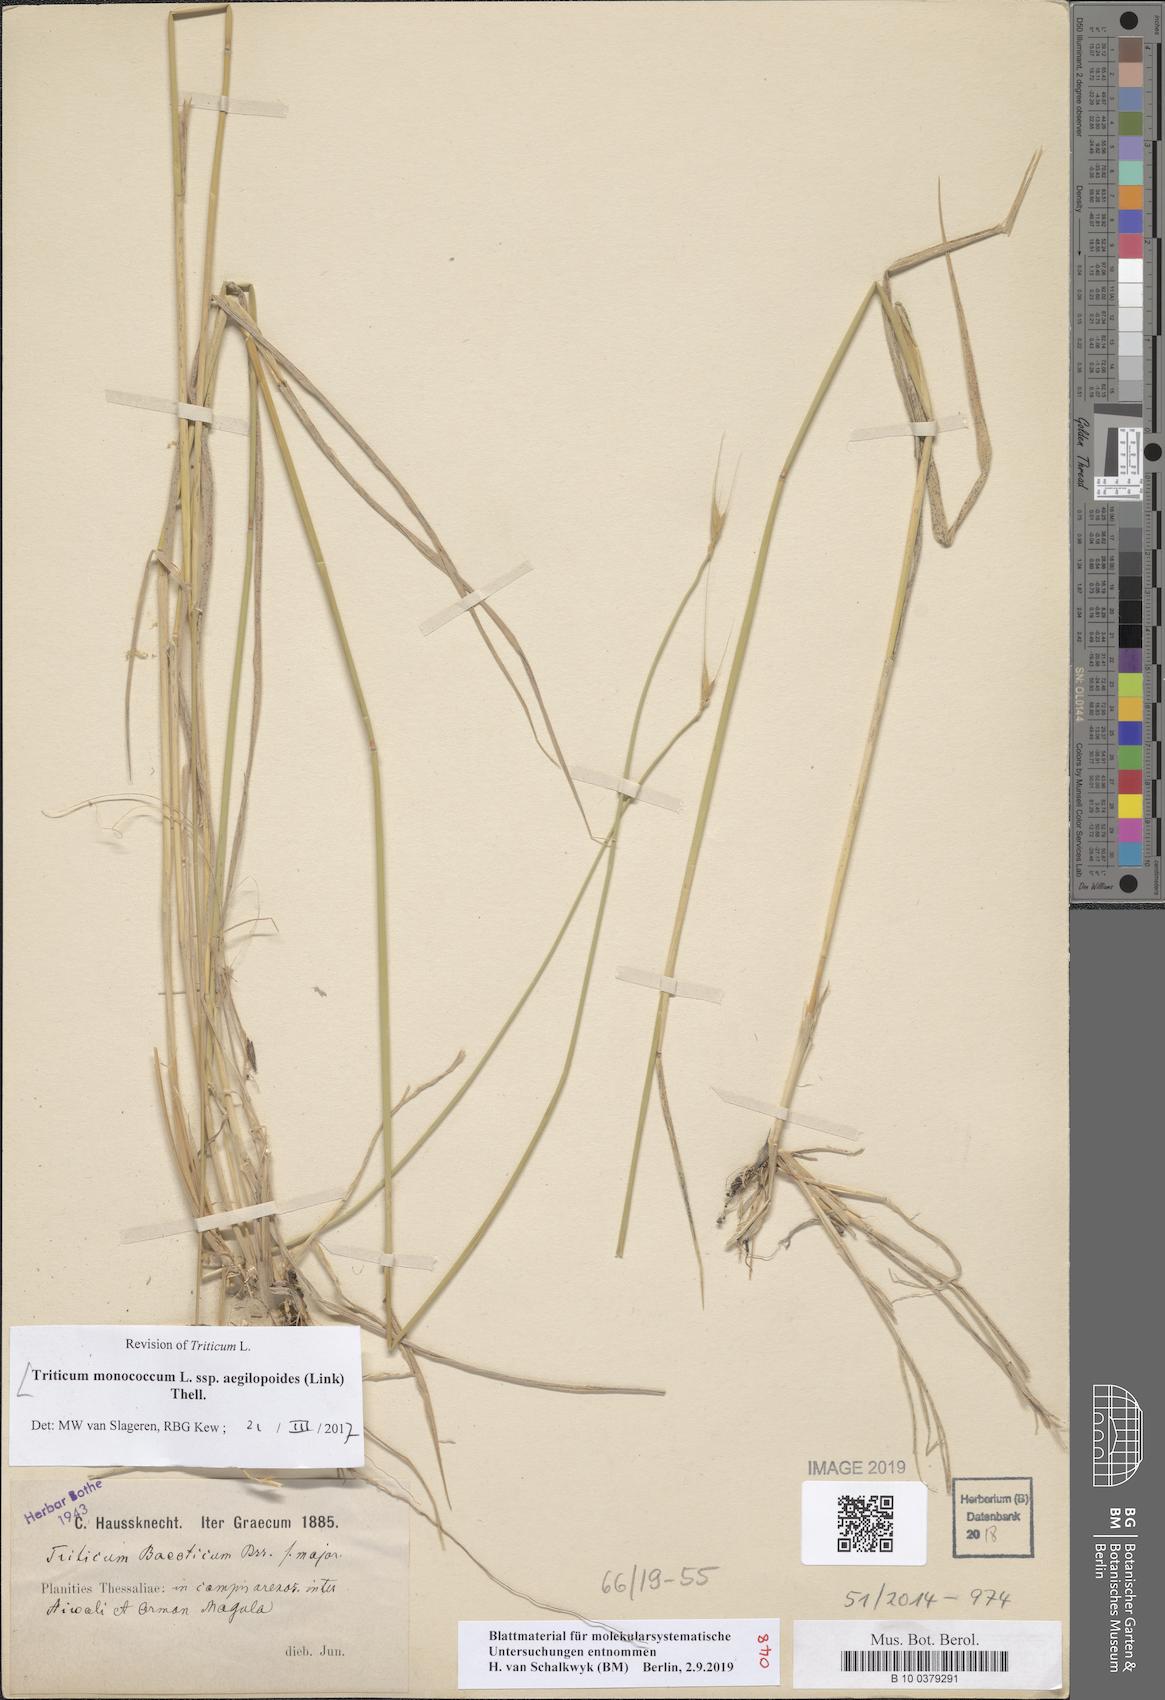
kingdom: Plantae
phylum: Tracheophyta
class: Liliopsida
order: Poales
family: Poaceae
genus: Triticum
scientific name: Triticum monococcum
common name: Einkorn
